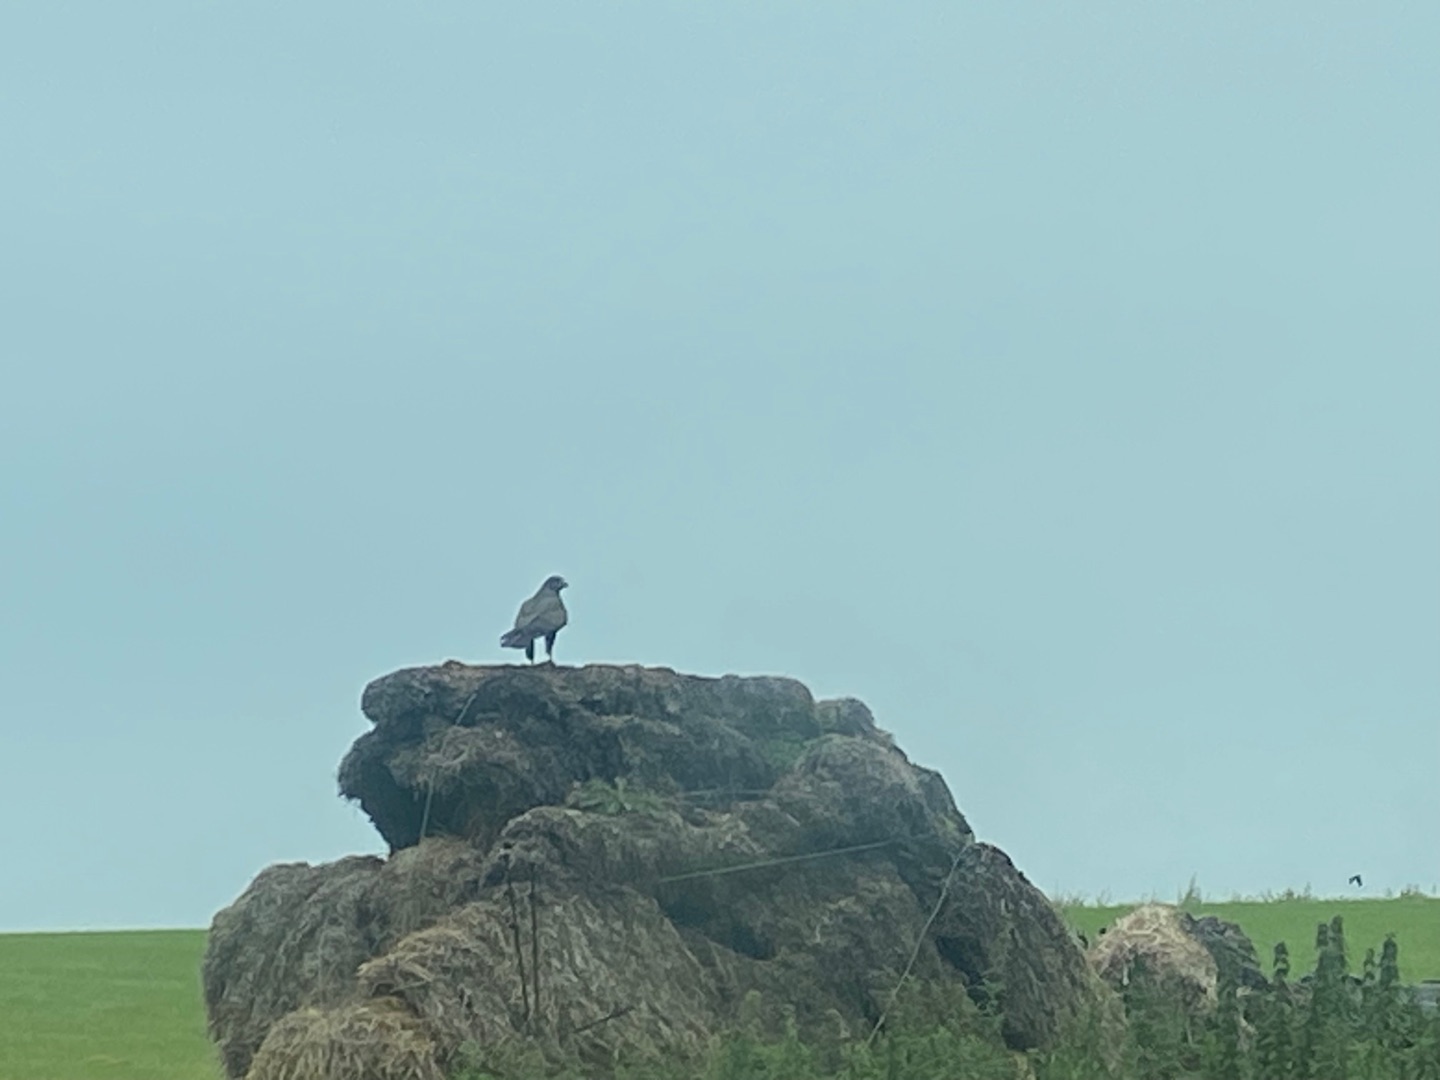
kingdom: Animalia
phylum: Chordata
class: Aves
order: Accipitriformes
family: Accipitridae
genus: Buteo
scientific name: Buteo buteo
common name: Musvåge
